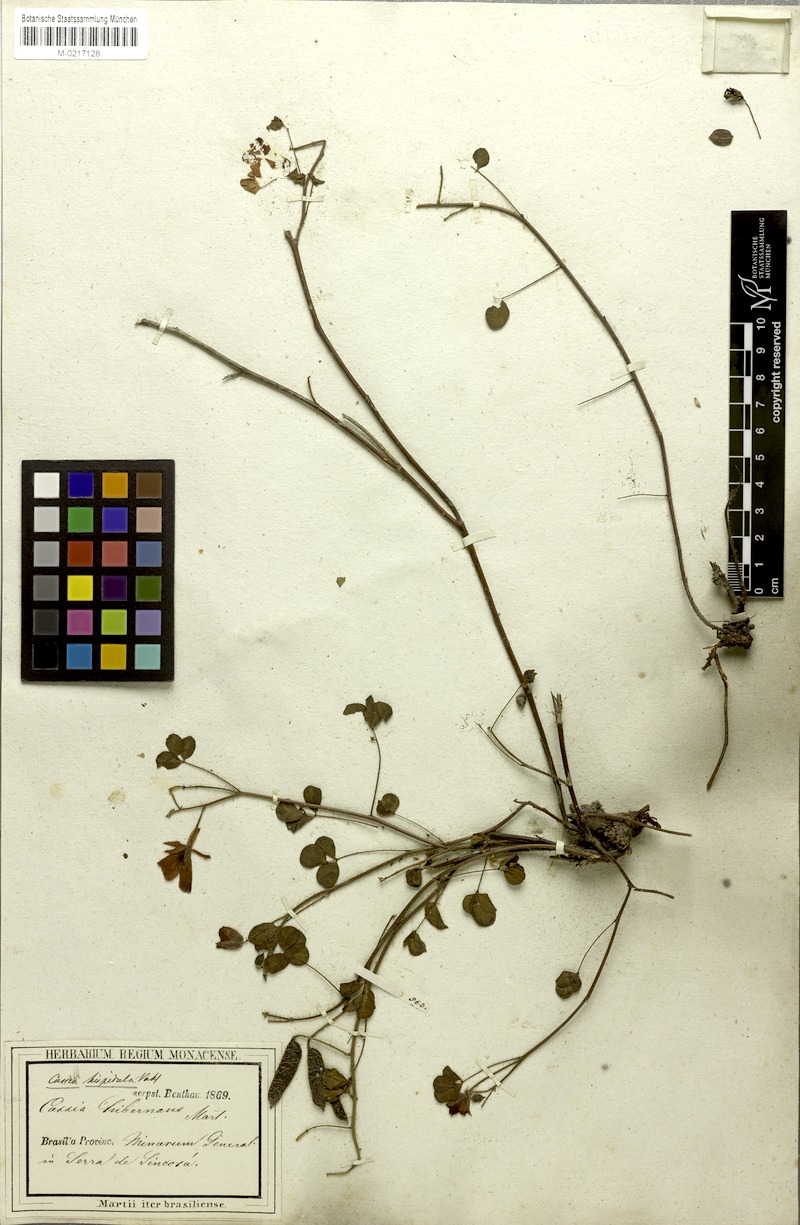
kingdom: Plantae
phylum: Tracheophyta
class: Magnoliopsida
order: Fabales
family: Fabaceae
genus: Chamaecrista
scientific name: Chamaecrista hispidula
